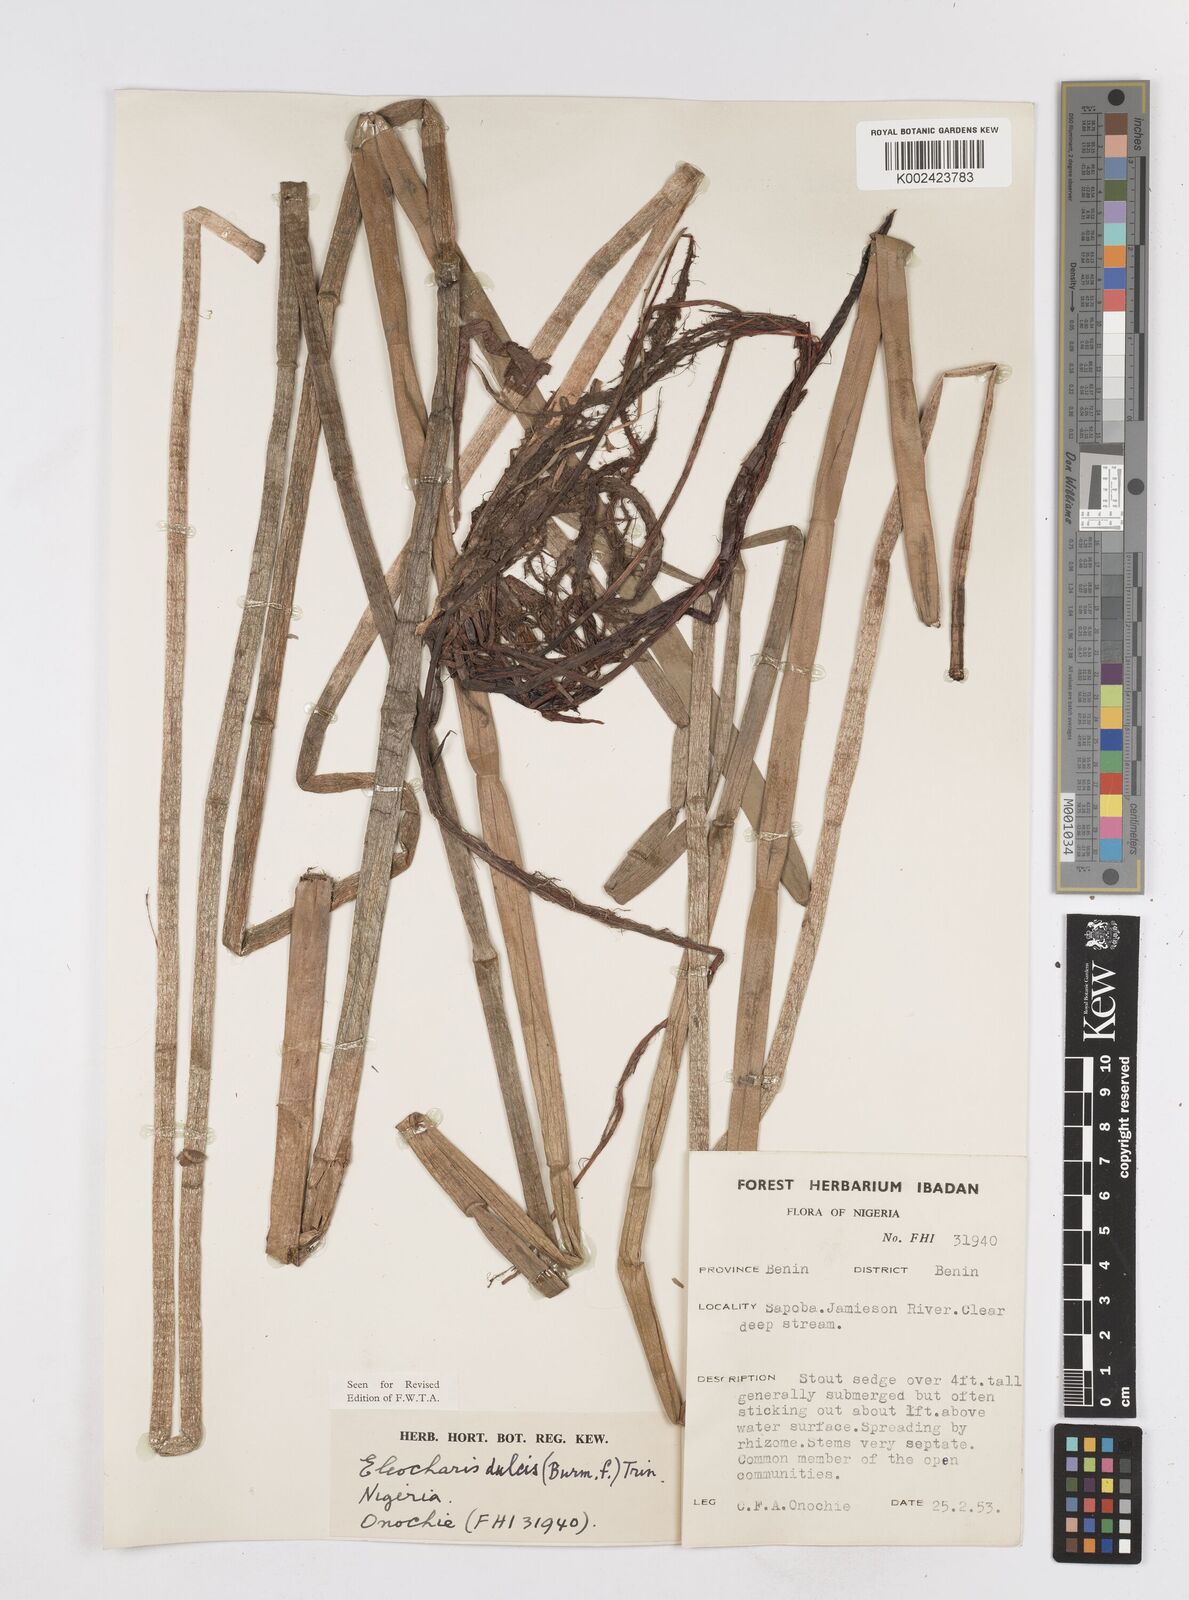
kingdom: Plantae
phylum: Tracheophyta
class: Liliopsida
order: Poales
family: Cyperaceae
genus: Eleocharis
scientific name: Eleocharis dulcis
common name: Chinese water chestnut
